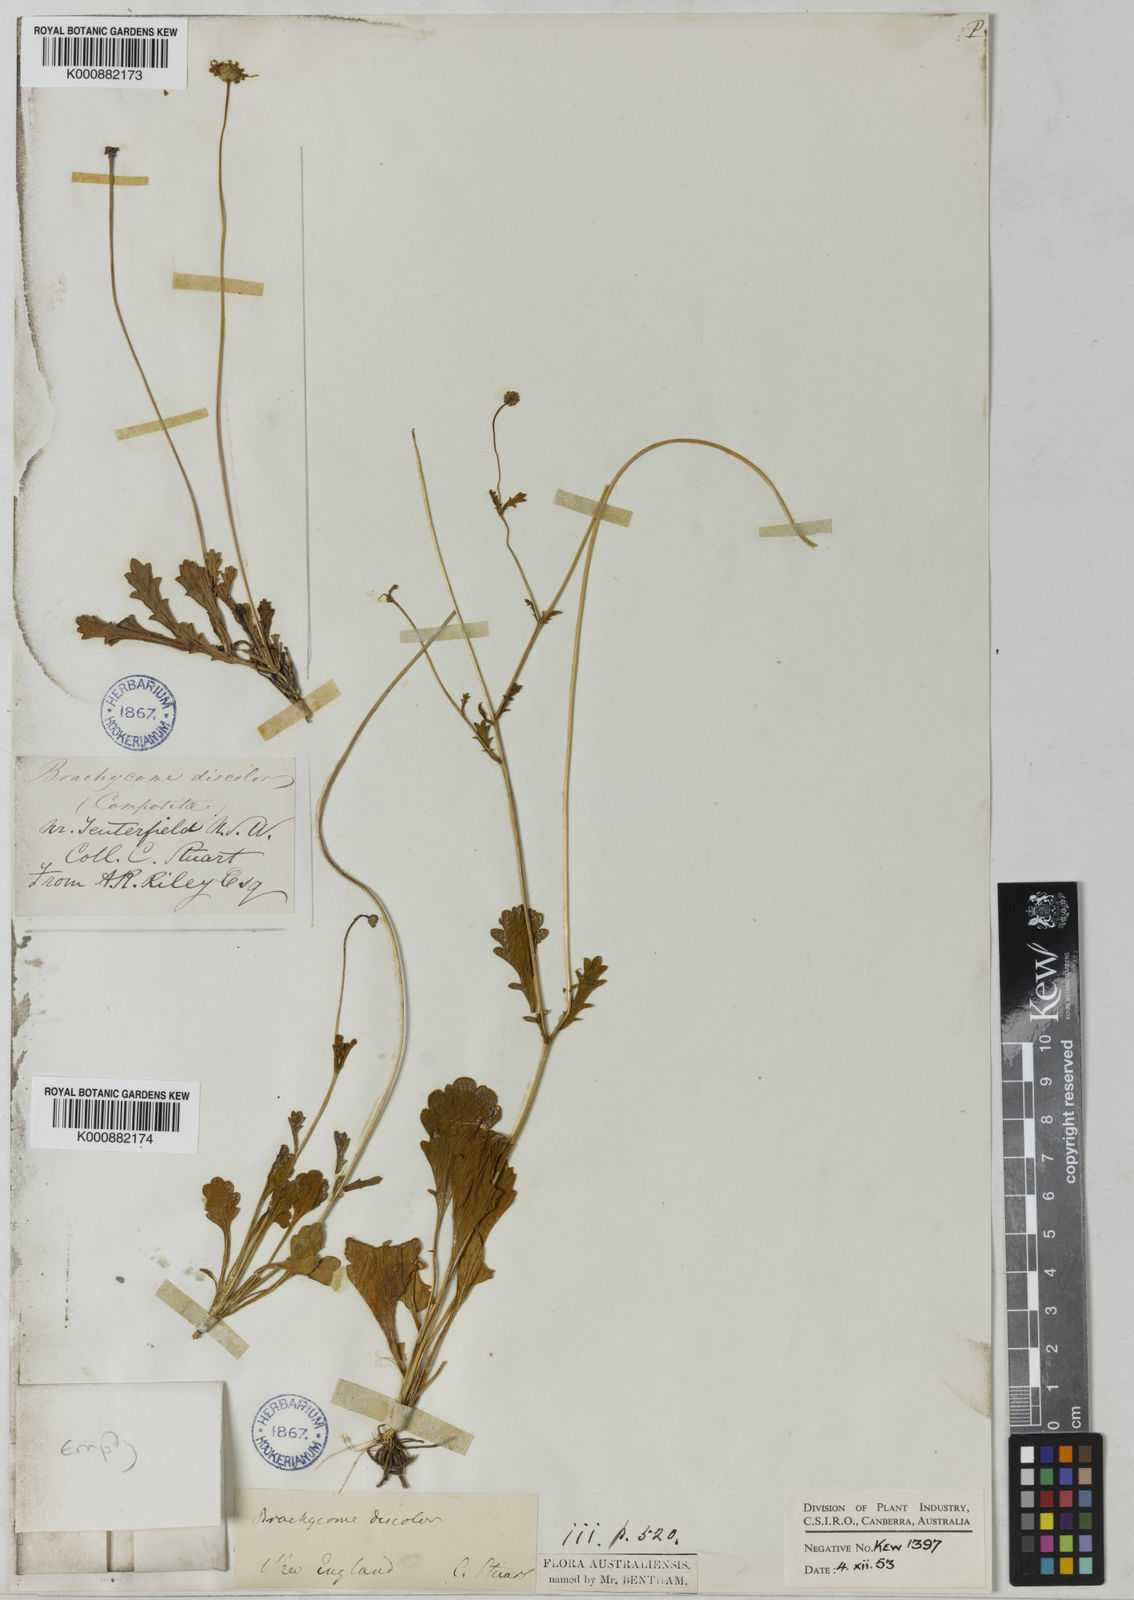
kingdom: Plantae
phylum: Tracheophyta
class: Magnoliopsida
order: Asterales
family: Asteraceae
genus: Brachyscome
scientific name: Brachyscome microcarpa
